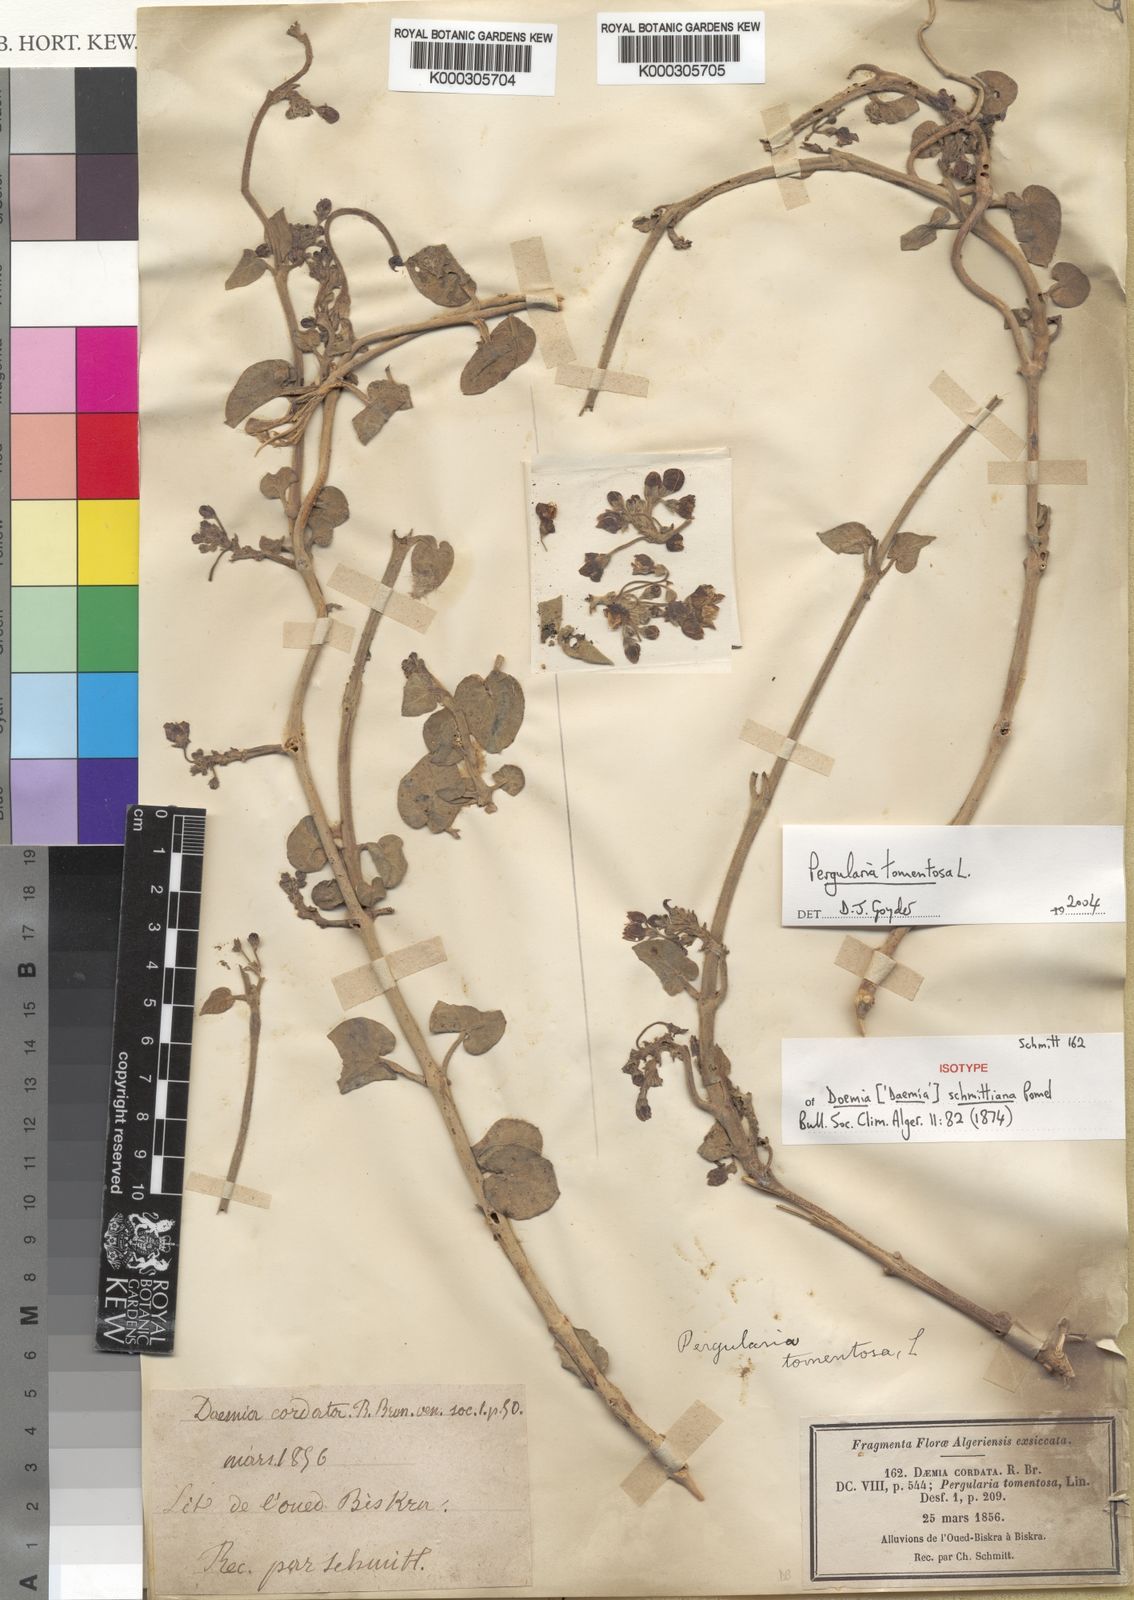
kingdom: Plantae
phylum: Tracheophyta
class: Magnoliopsida
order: Gentianales
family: Apocynaceae
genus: Pergularia
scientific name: Pergularia tomentosa
